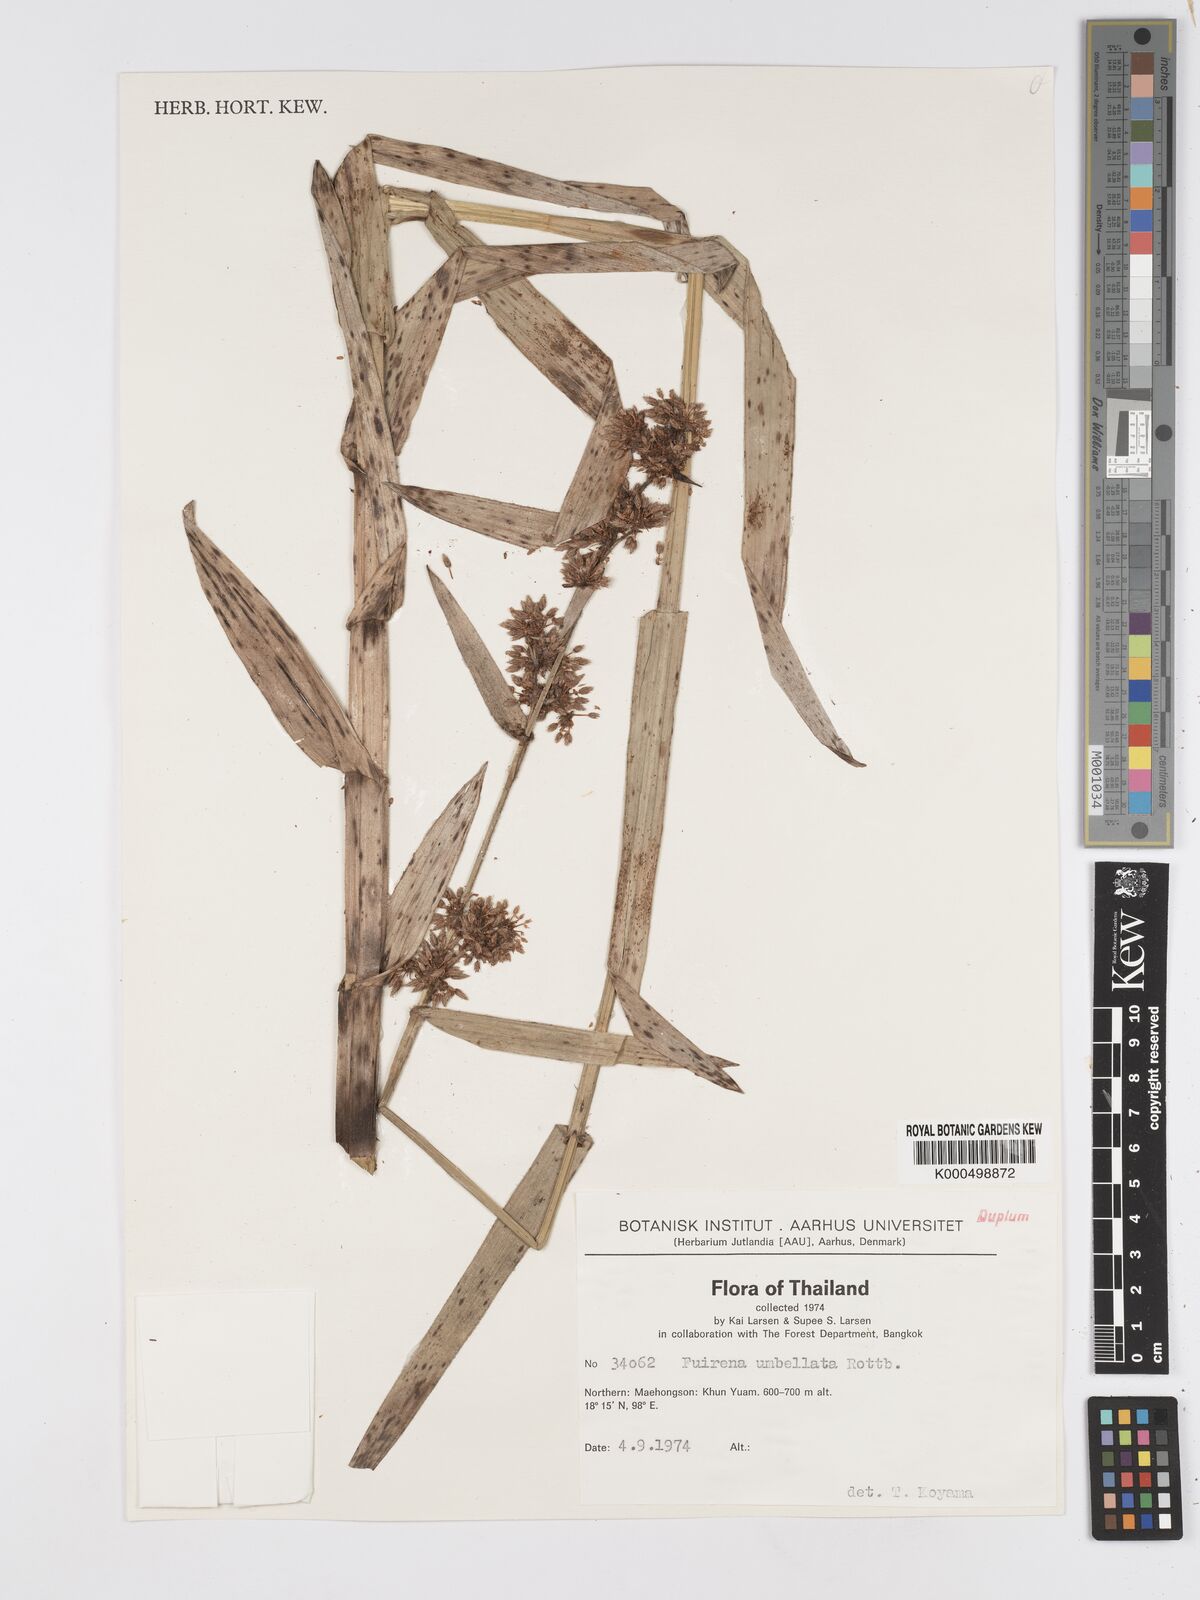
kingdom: Plantae
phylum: Tracheophyta
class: Liliopsida
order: Poales
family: Cyperaceae
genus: Fuirena
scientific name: Fuirena umbellata
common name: Yefen
